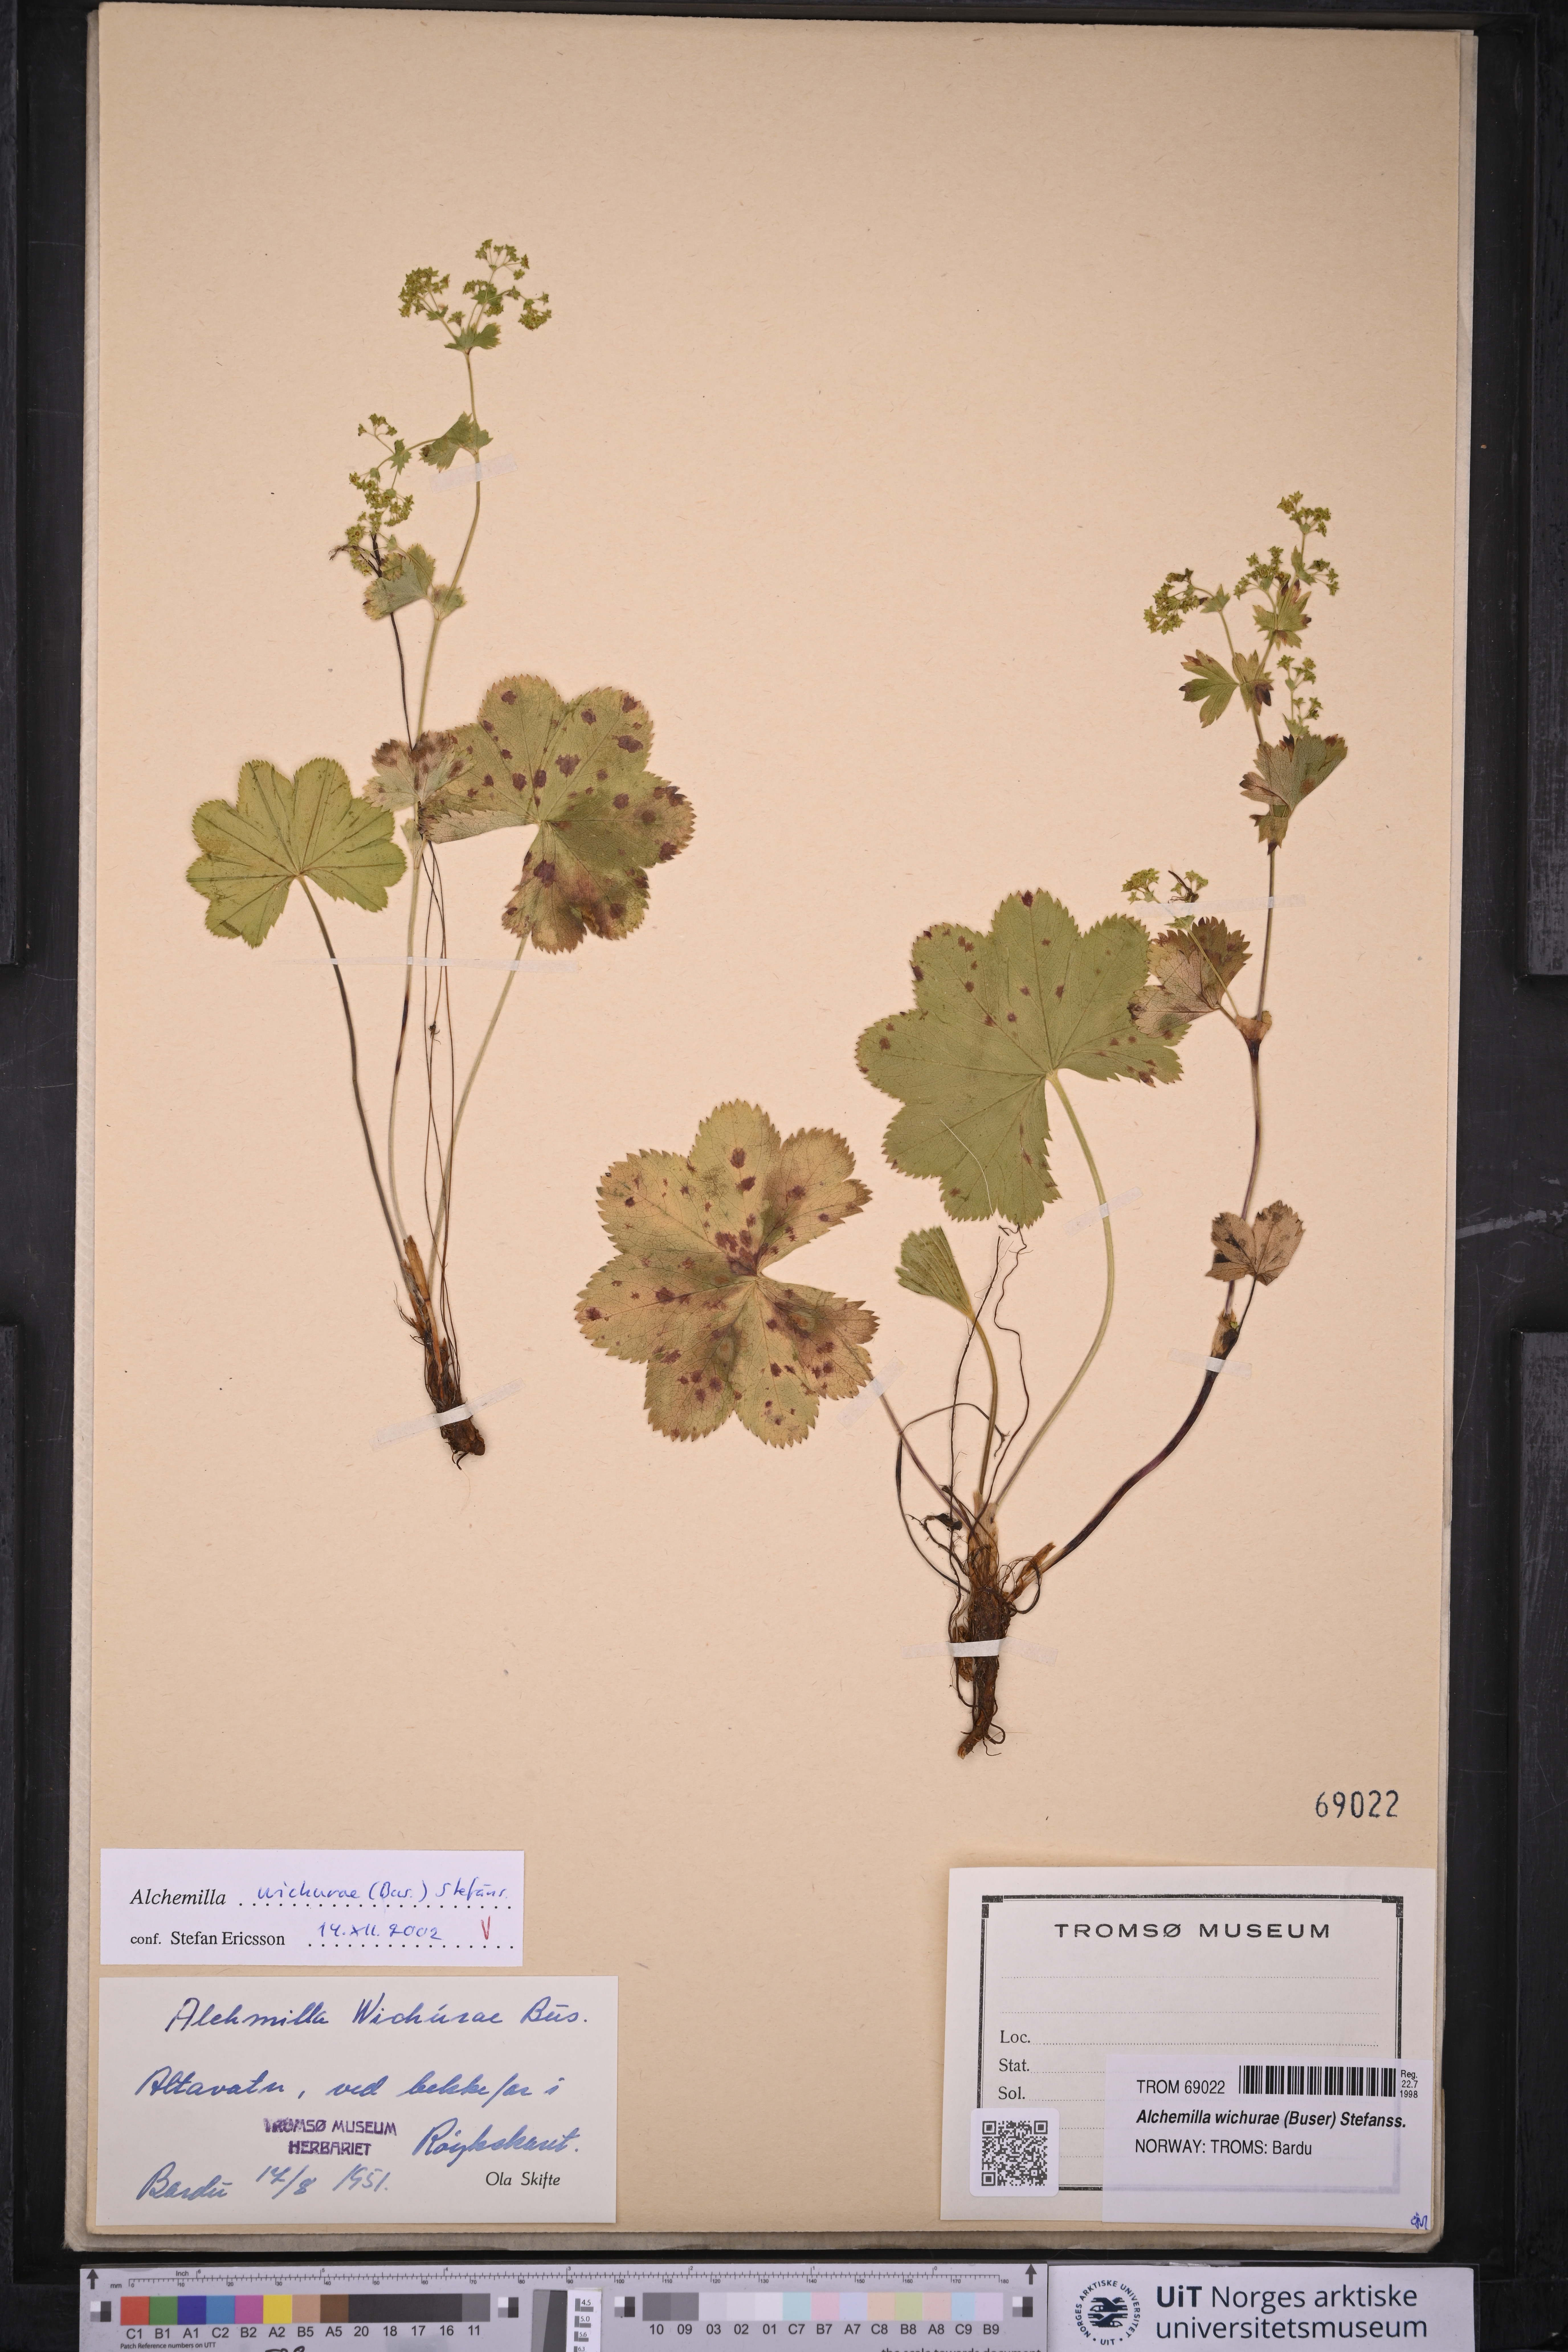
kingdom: Plantae
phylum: Tracheophyta
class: Magnoliopsida
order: Rosales
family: Rosaceae
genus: Alchemilla
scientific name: Alchemilla wichurae
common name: Rock lady's mantle
